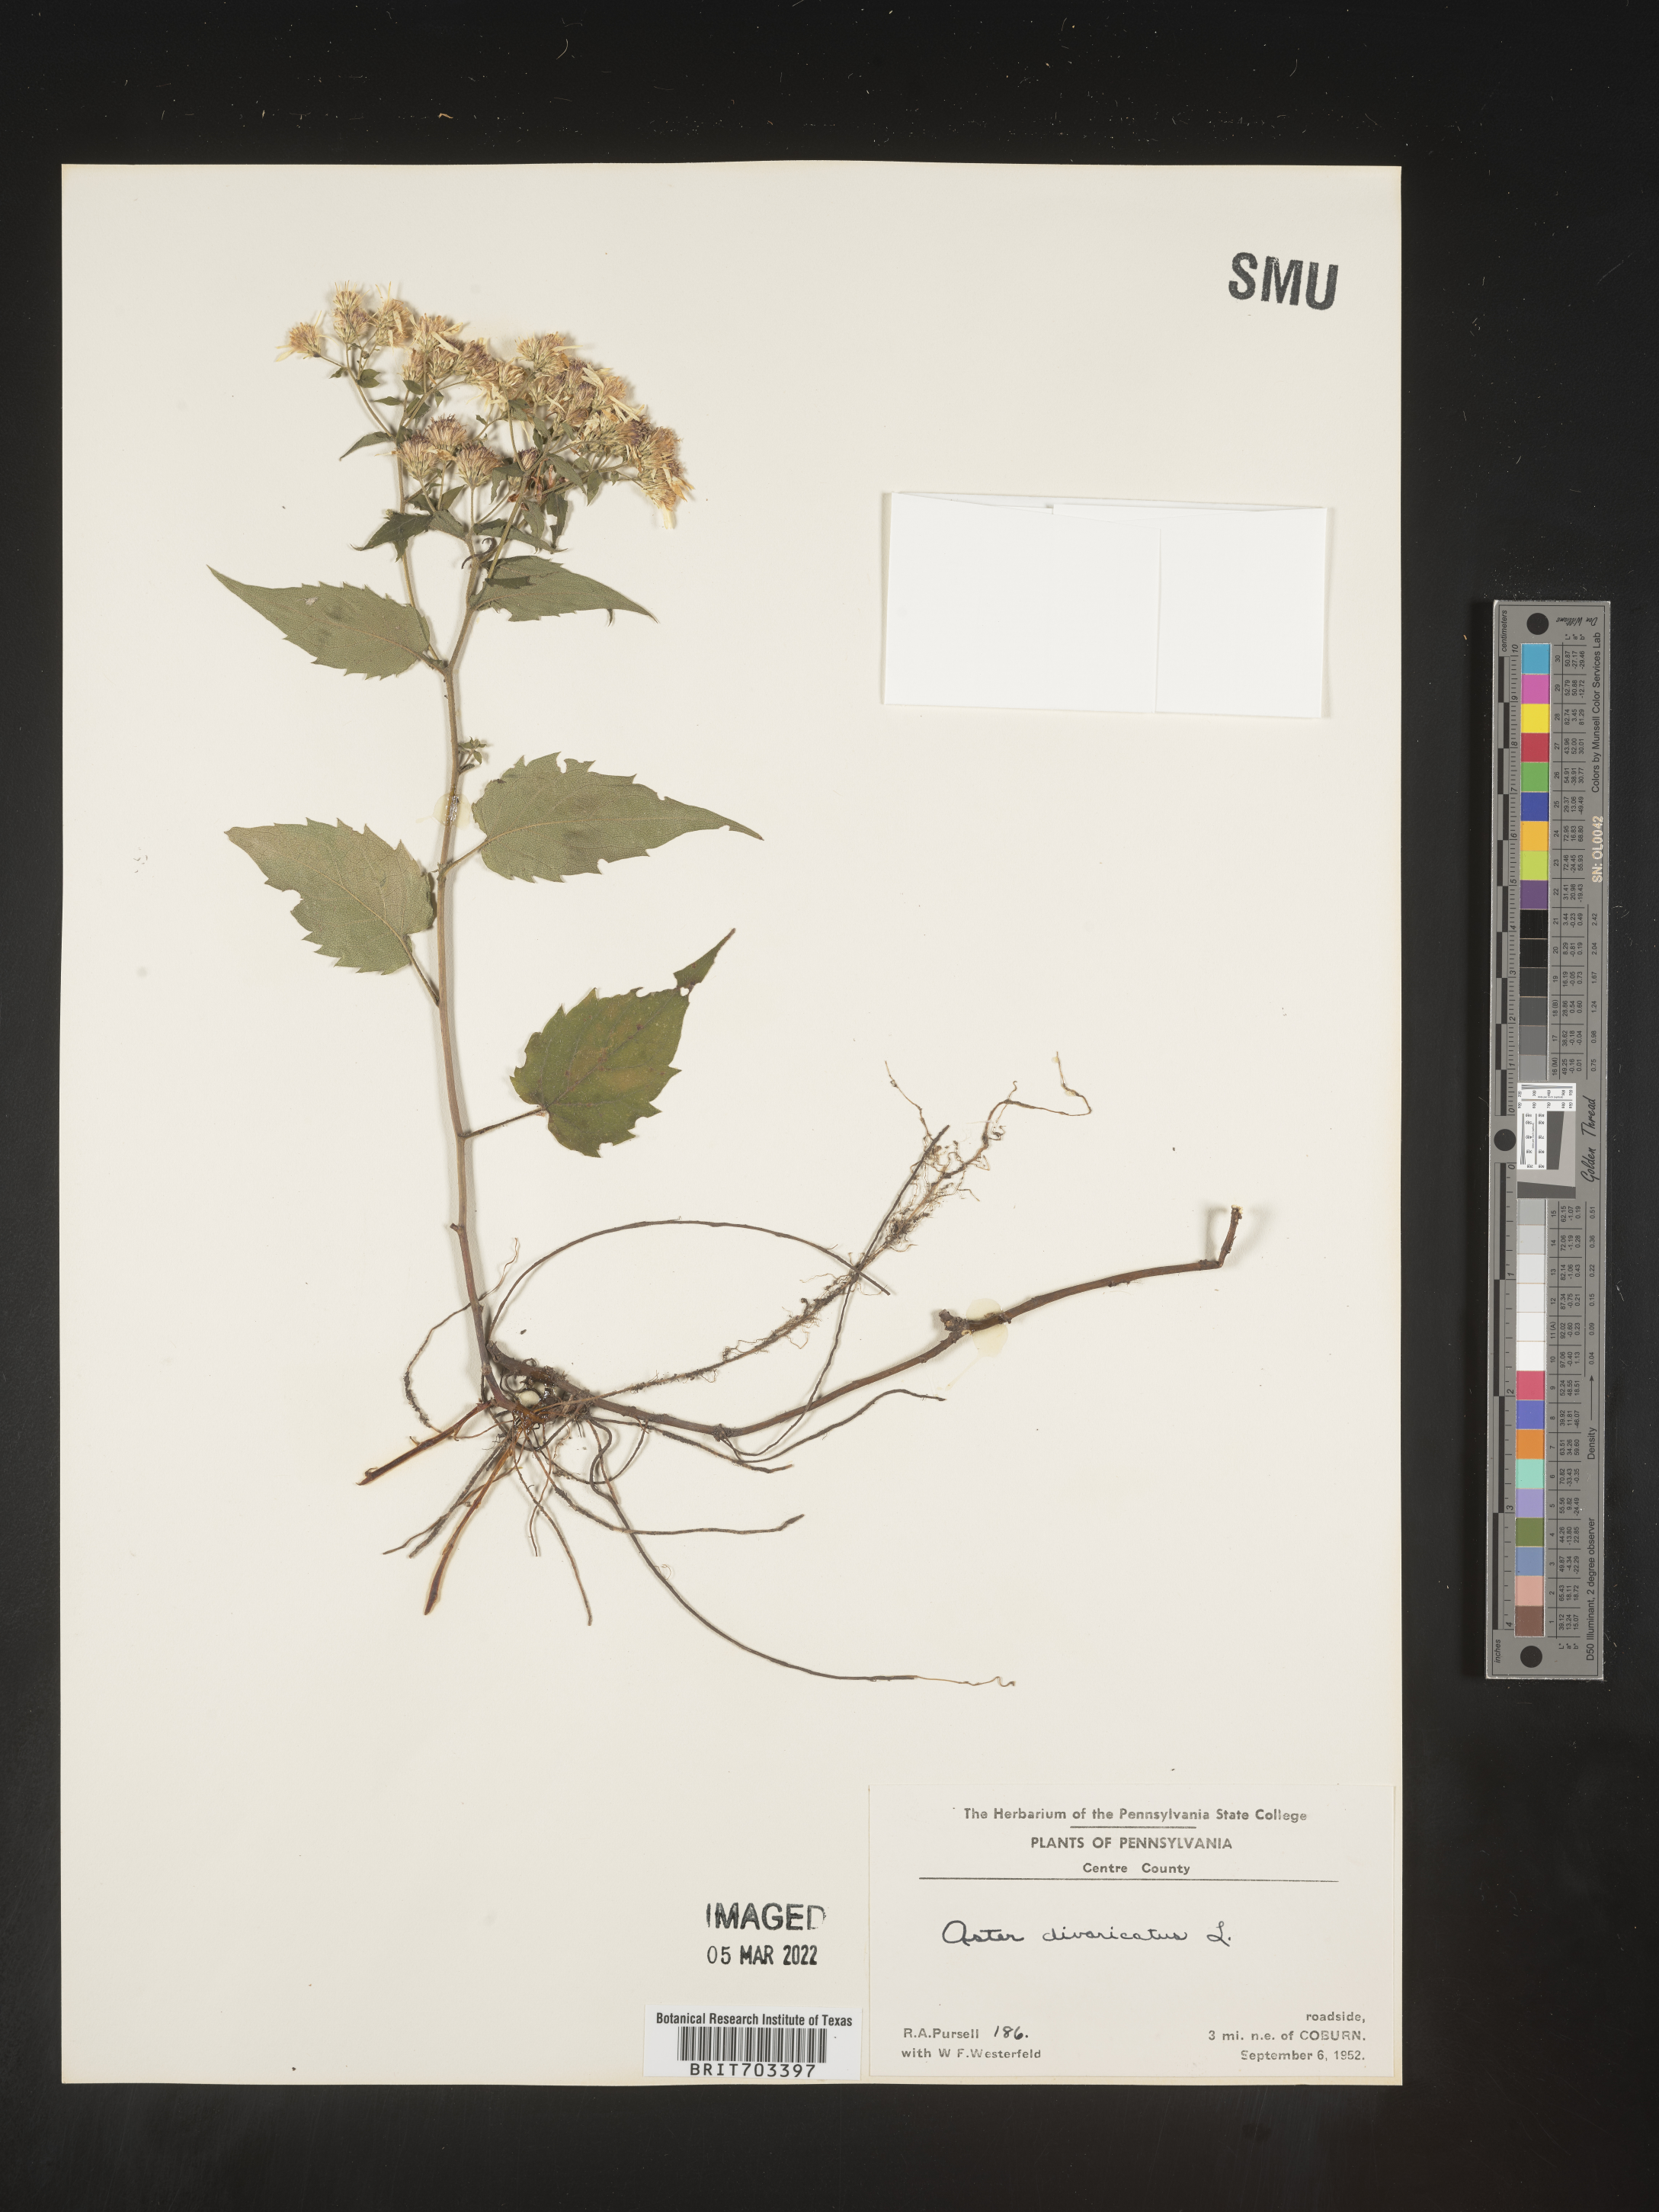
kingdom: Plantae
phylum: Tracheophyta
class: Magnoliopsida
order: Asterales
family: Asteraceae
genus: Eurybia
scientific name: Eurybia divaricata
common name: White wood aster
